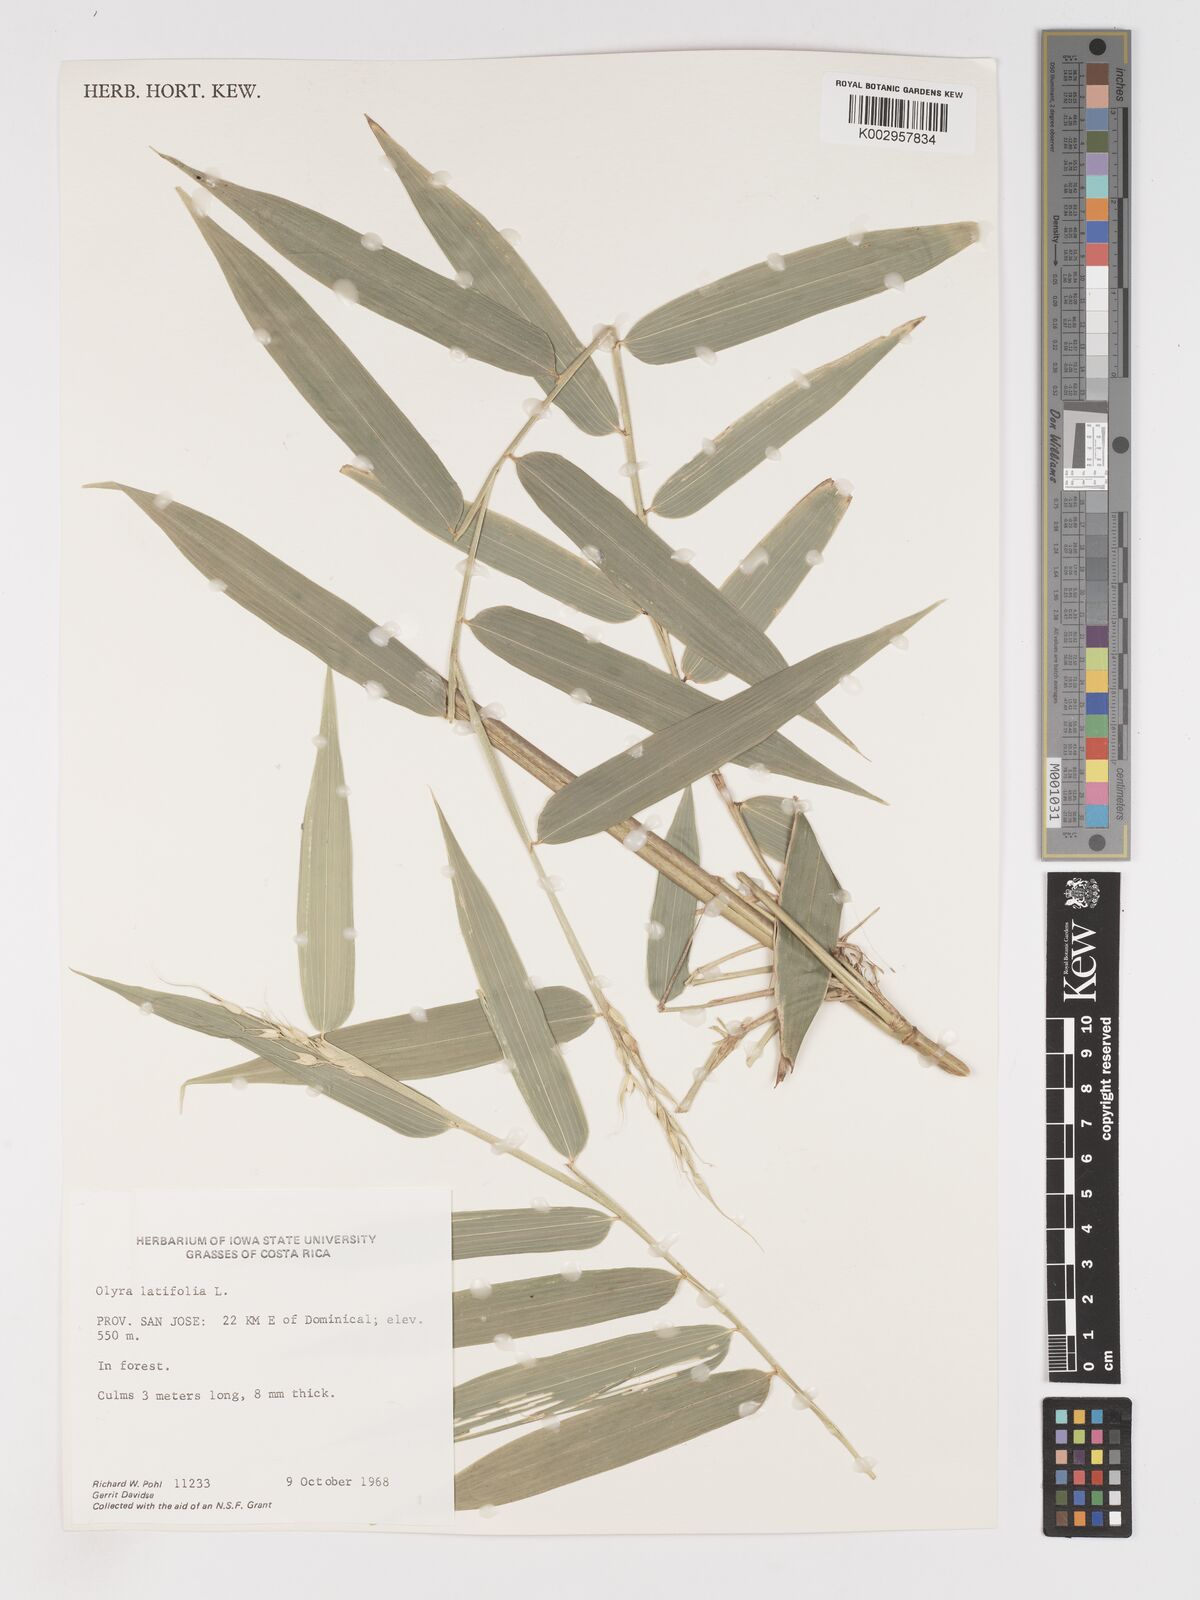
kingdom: Plantae
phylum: Tracheophyta
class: Liliopsida
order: Poales
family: Poaceae
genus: Olyra
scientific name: Olyra latifolia
